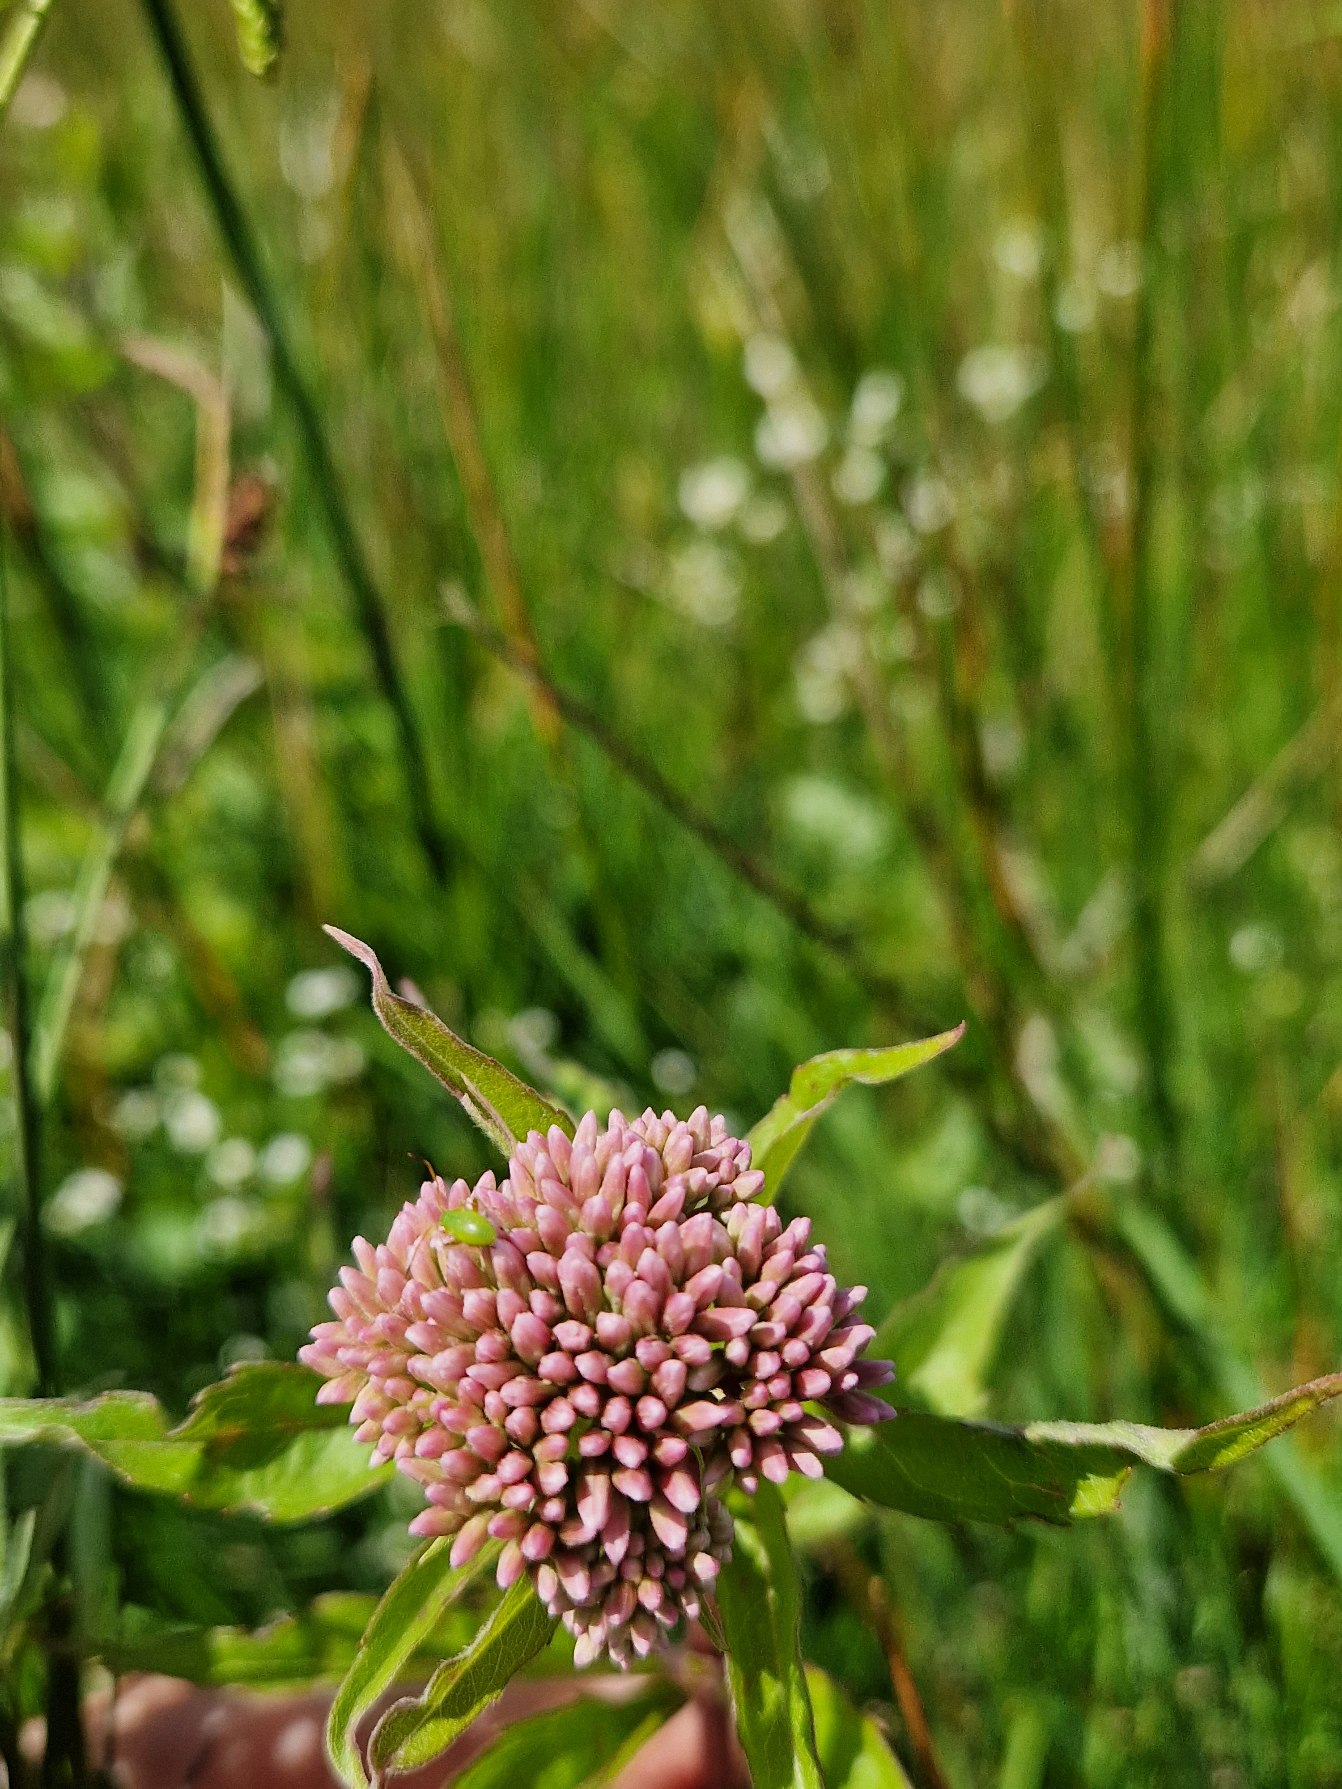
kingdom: Plantae
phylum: Tracheophyta
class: Magnoliopsida
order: Asterales
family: Asteraceae
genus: Eupatorium
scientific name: Eupatorium cannabinum
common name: Hjortetrøst
